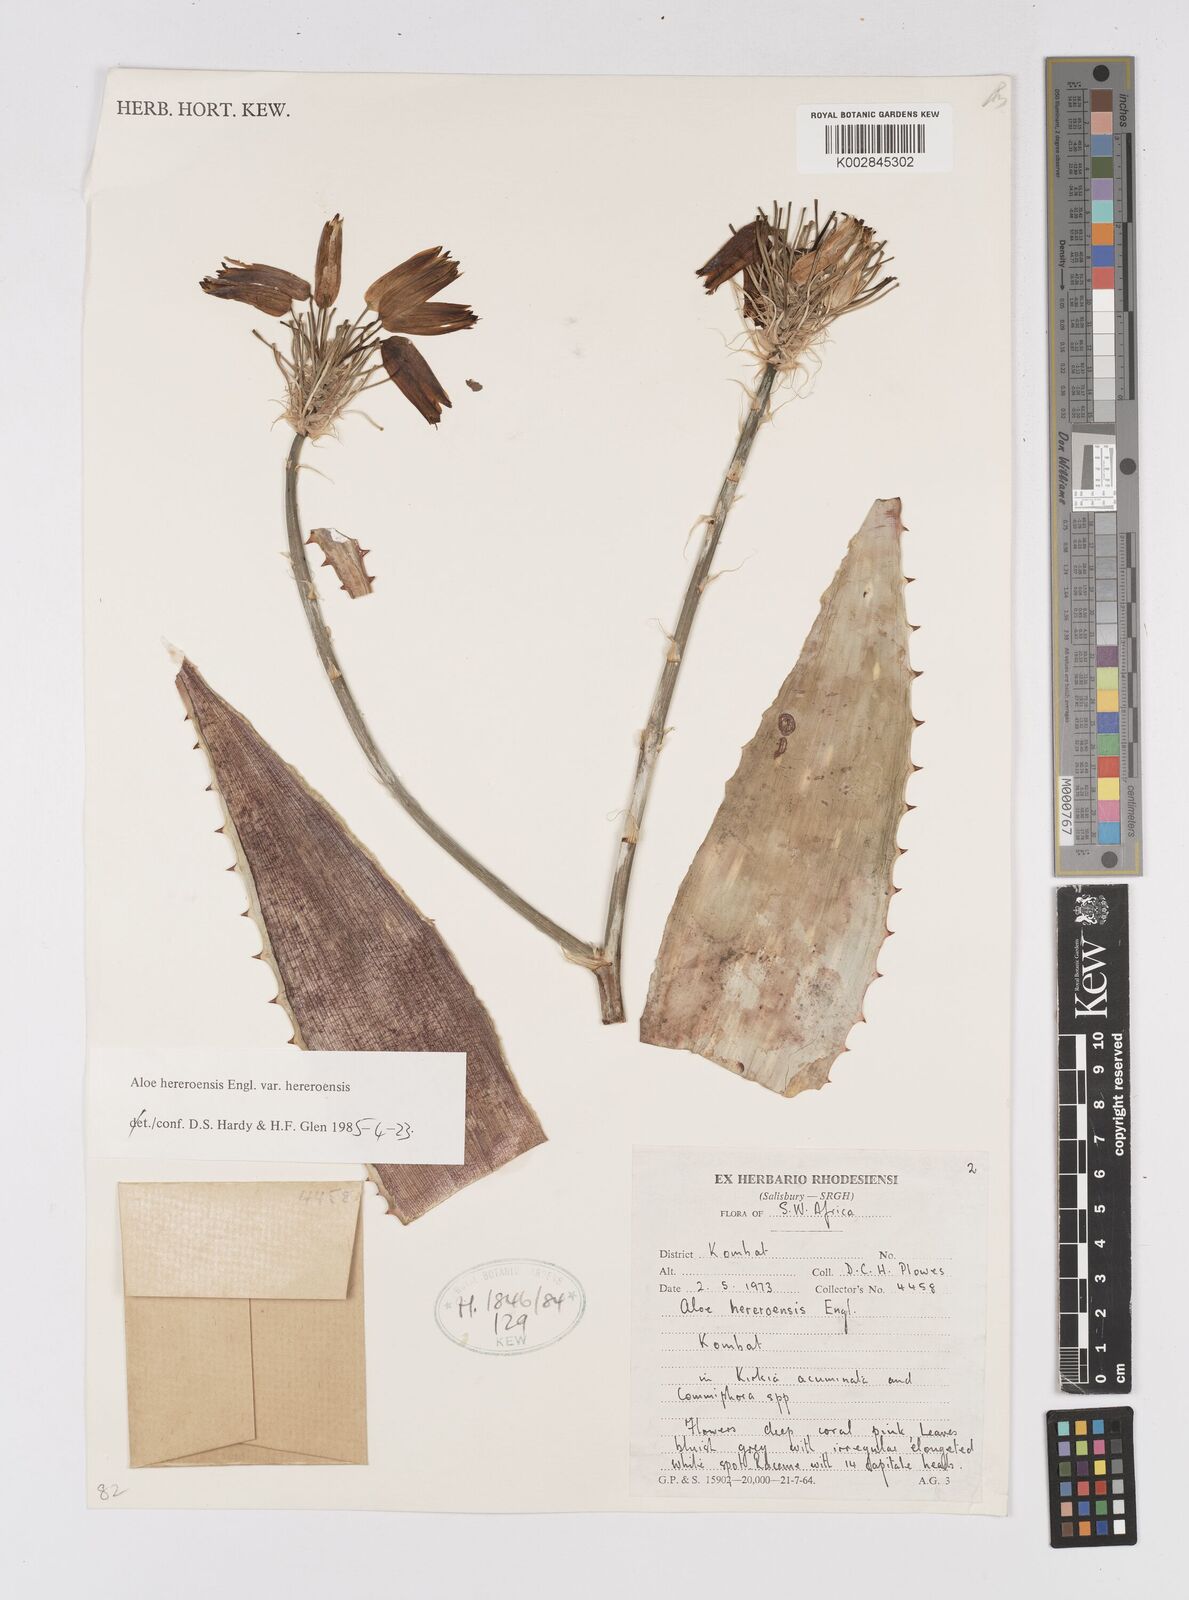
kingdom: Plantae
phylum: Tracheophyta
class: Liliopsida
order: Asparagales
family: Asphodelaceae
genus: Aloe
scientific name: Aloe hereroensis
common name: Herero aloe
